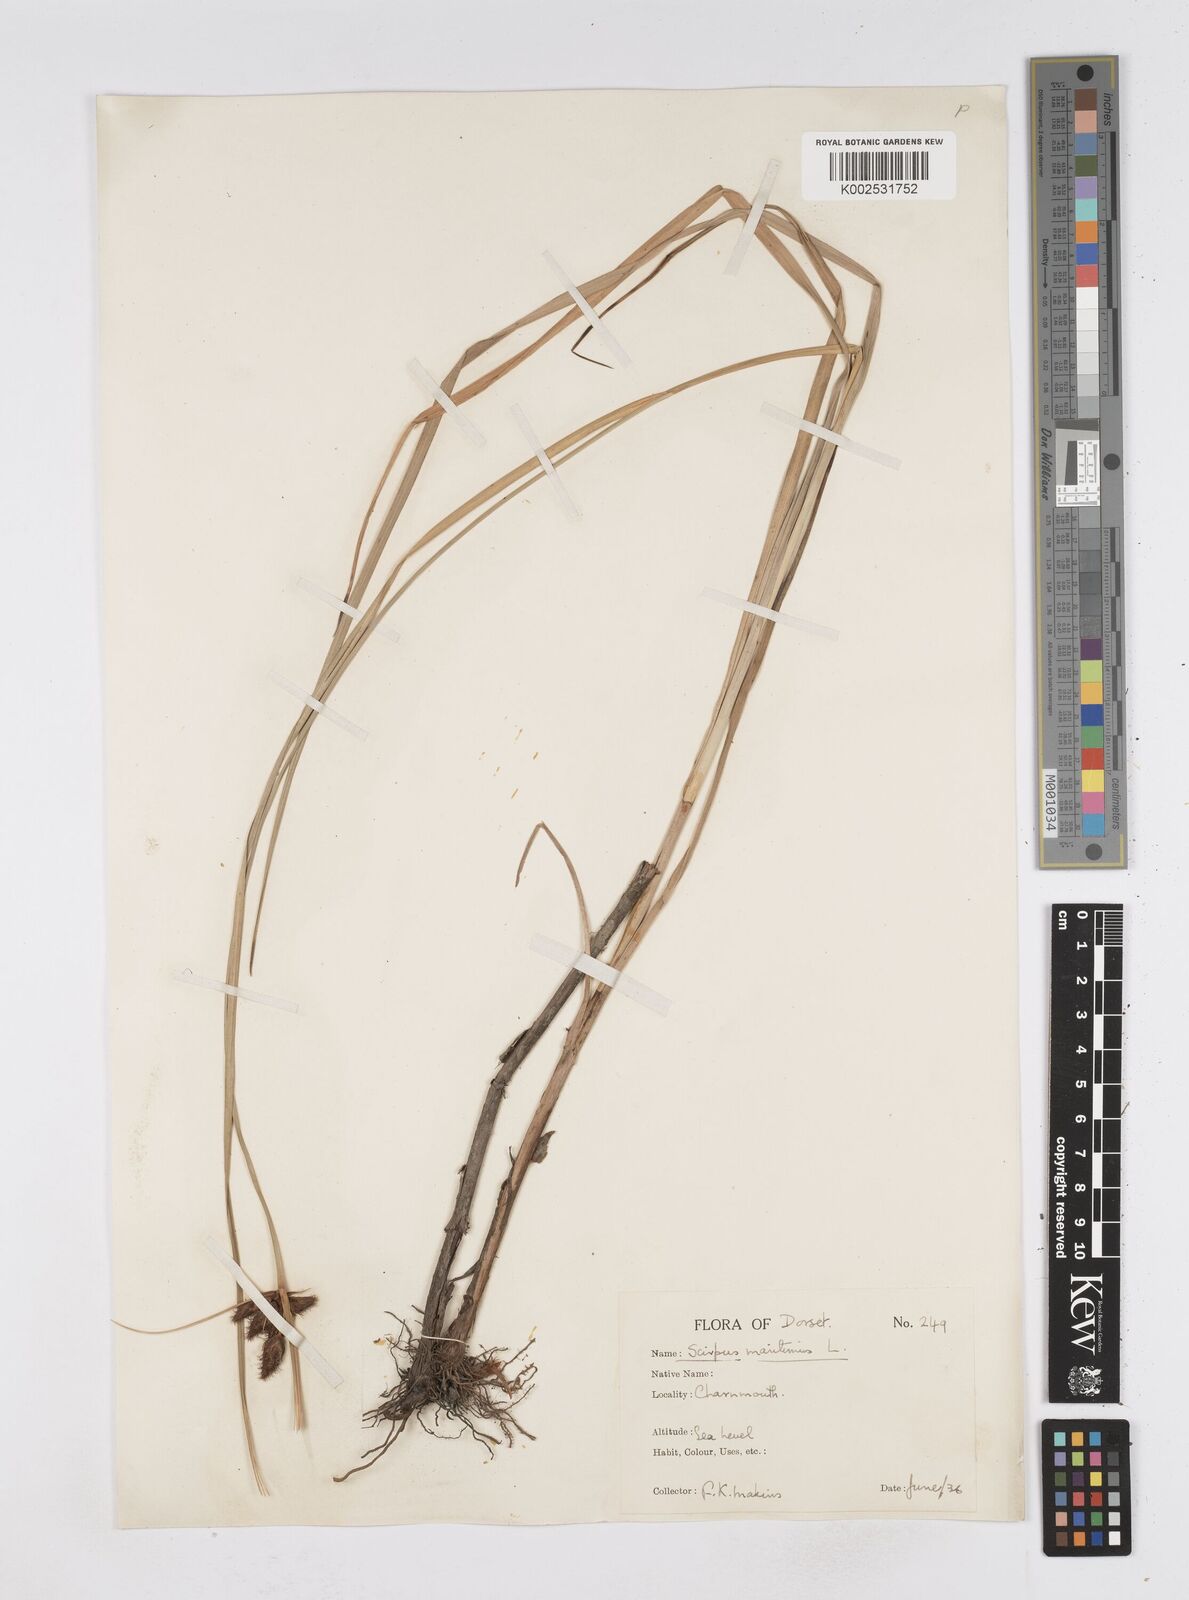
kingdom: Plantae
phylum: Tracheophyta
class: Liliopsida
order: Poales
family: Cyperaceae
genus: Bolboschoenus
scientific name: Bolboschoenus maritimus
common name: Sea club-rush
